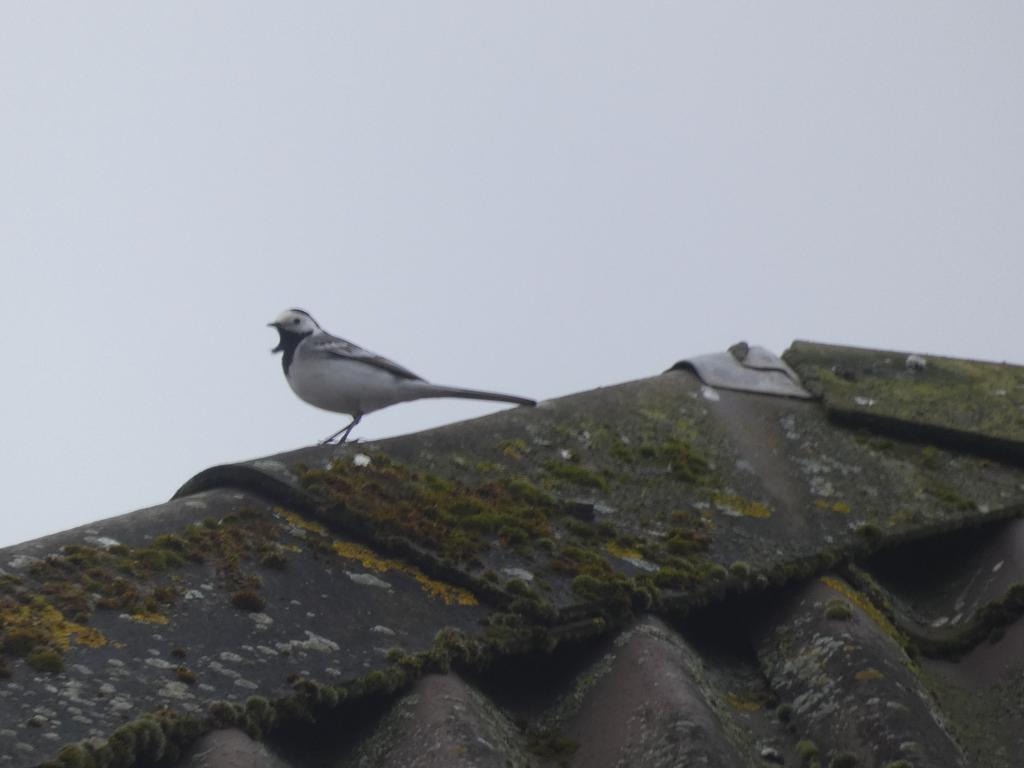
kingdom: Animalia
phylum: Chordata
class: Aves
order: Passeriformes
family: Motacillidae
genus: Motacilla
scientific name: Motacilla alba
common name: Hvid vipstjert
